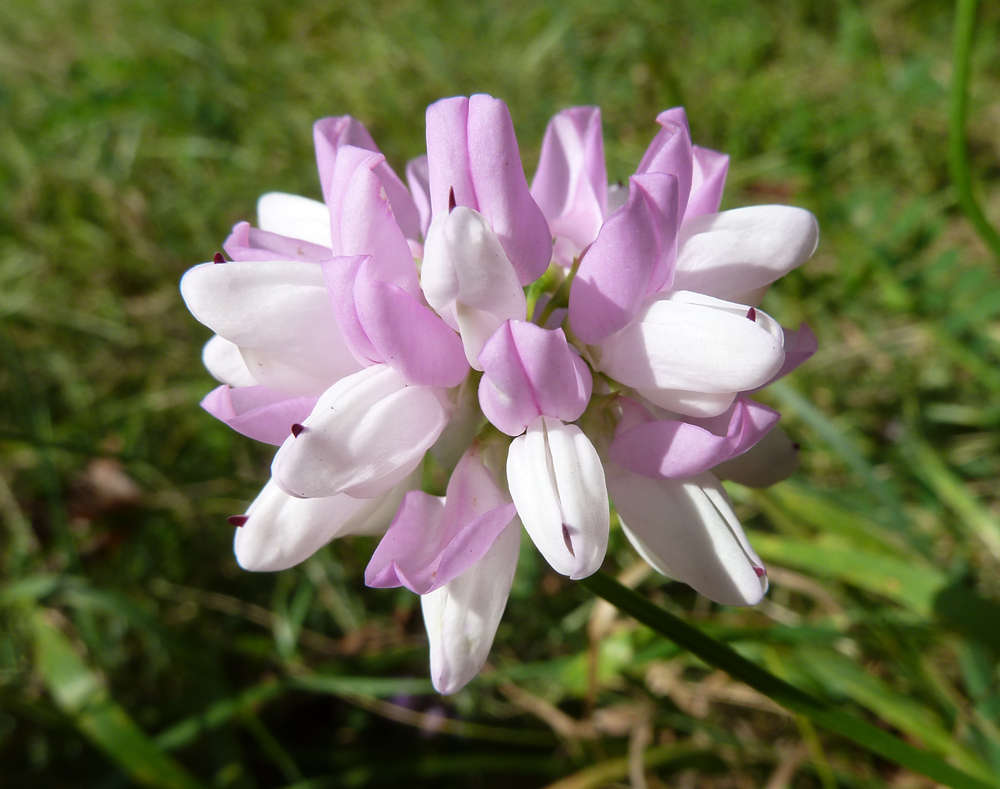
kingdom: Plantae
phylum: Tracheophyta
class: Magnoliopsida
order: Fabales
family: Fabaceae
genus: Coronilla
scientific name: Coronilla varia
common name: Crownvetch
